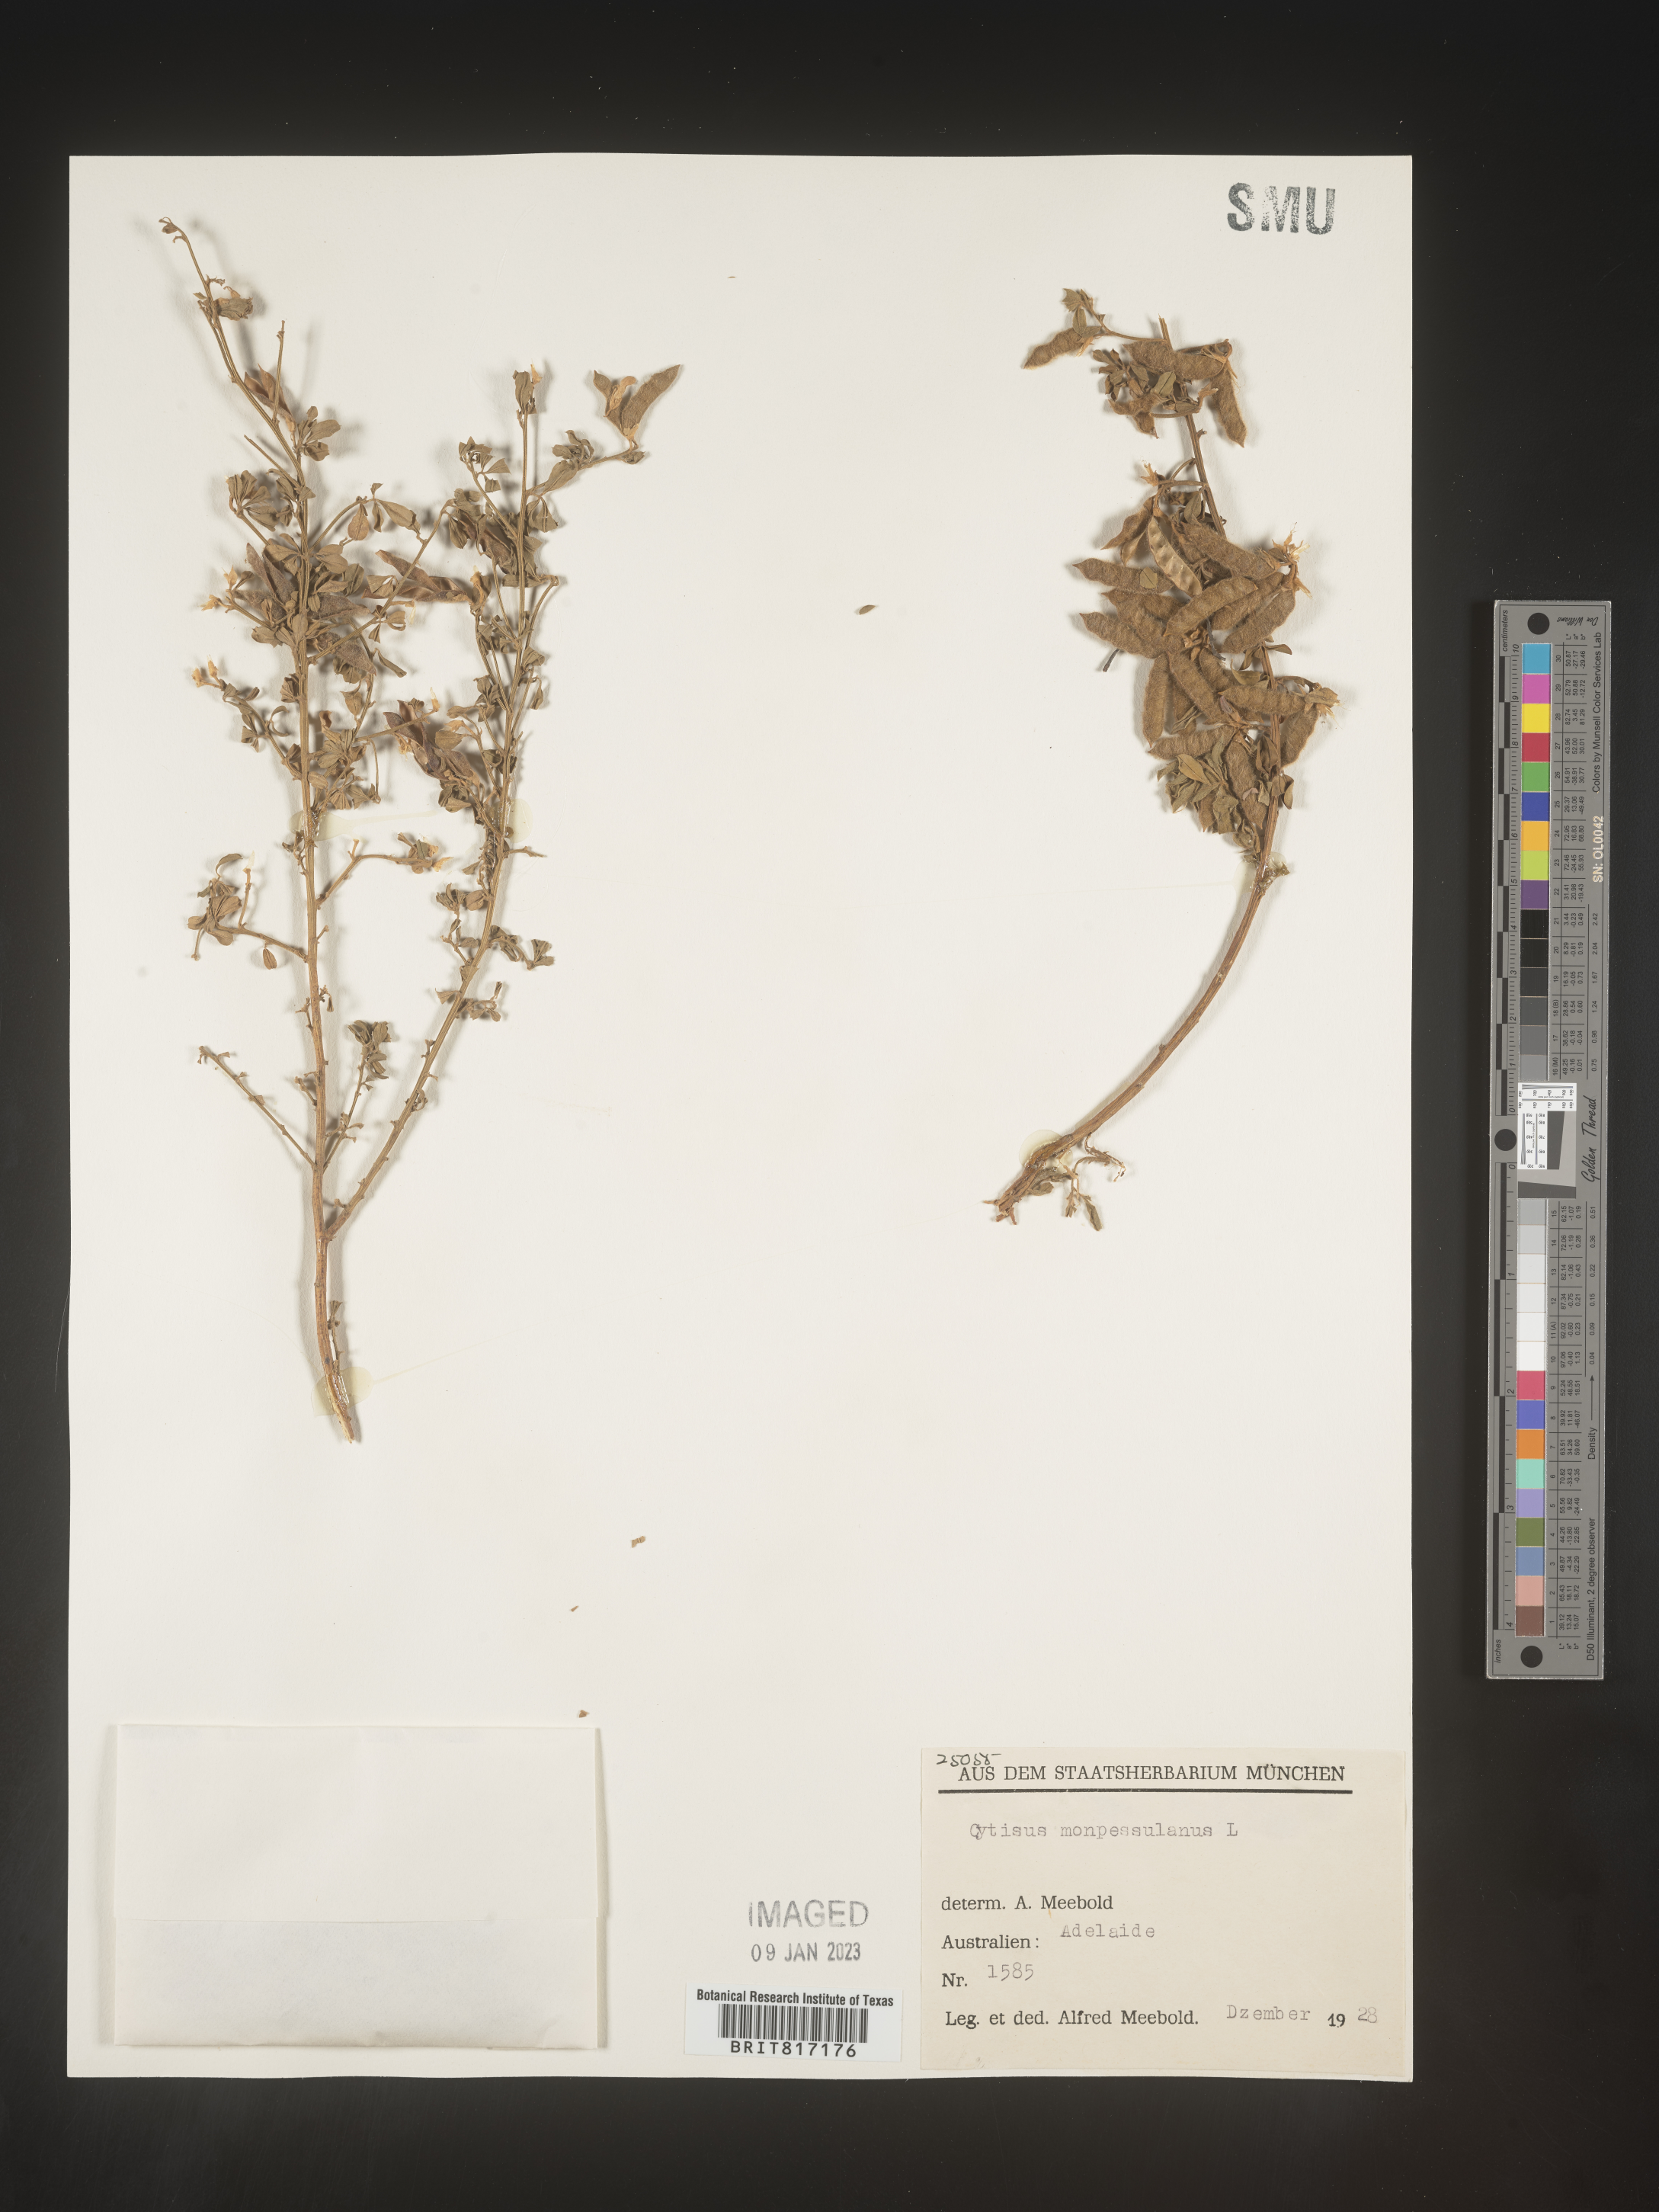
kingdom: Plantae
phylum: Tracheophyta
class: Magnoliopsida
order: Fabales
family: Fabaceae
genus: Cytisus
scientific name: Cytisus
